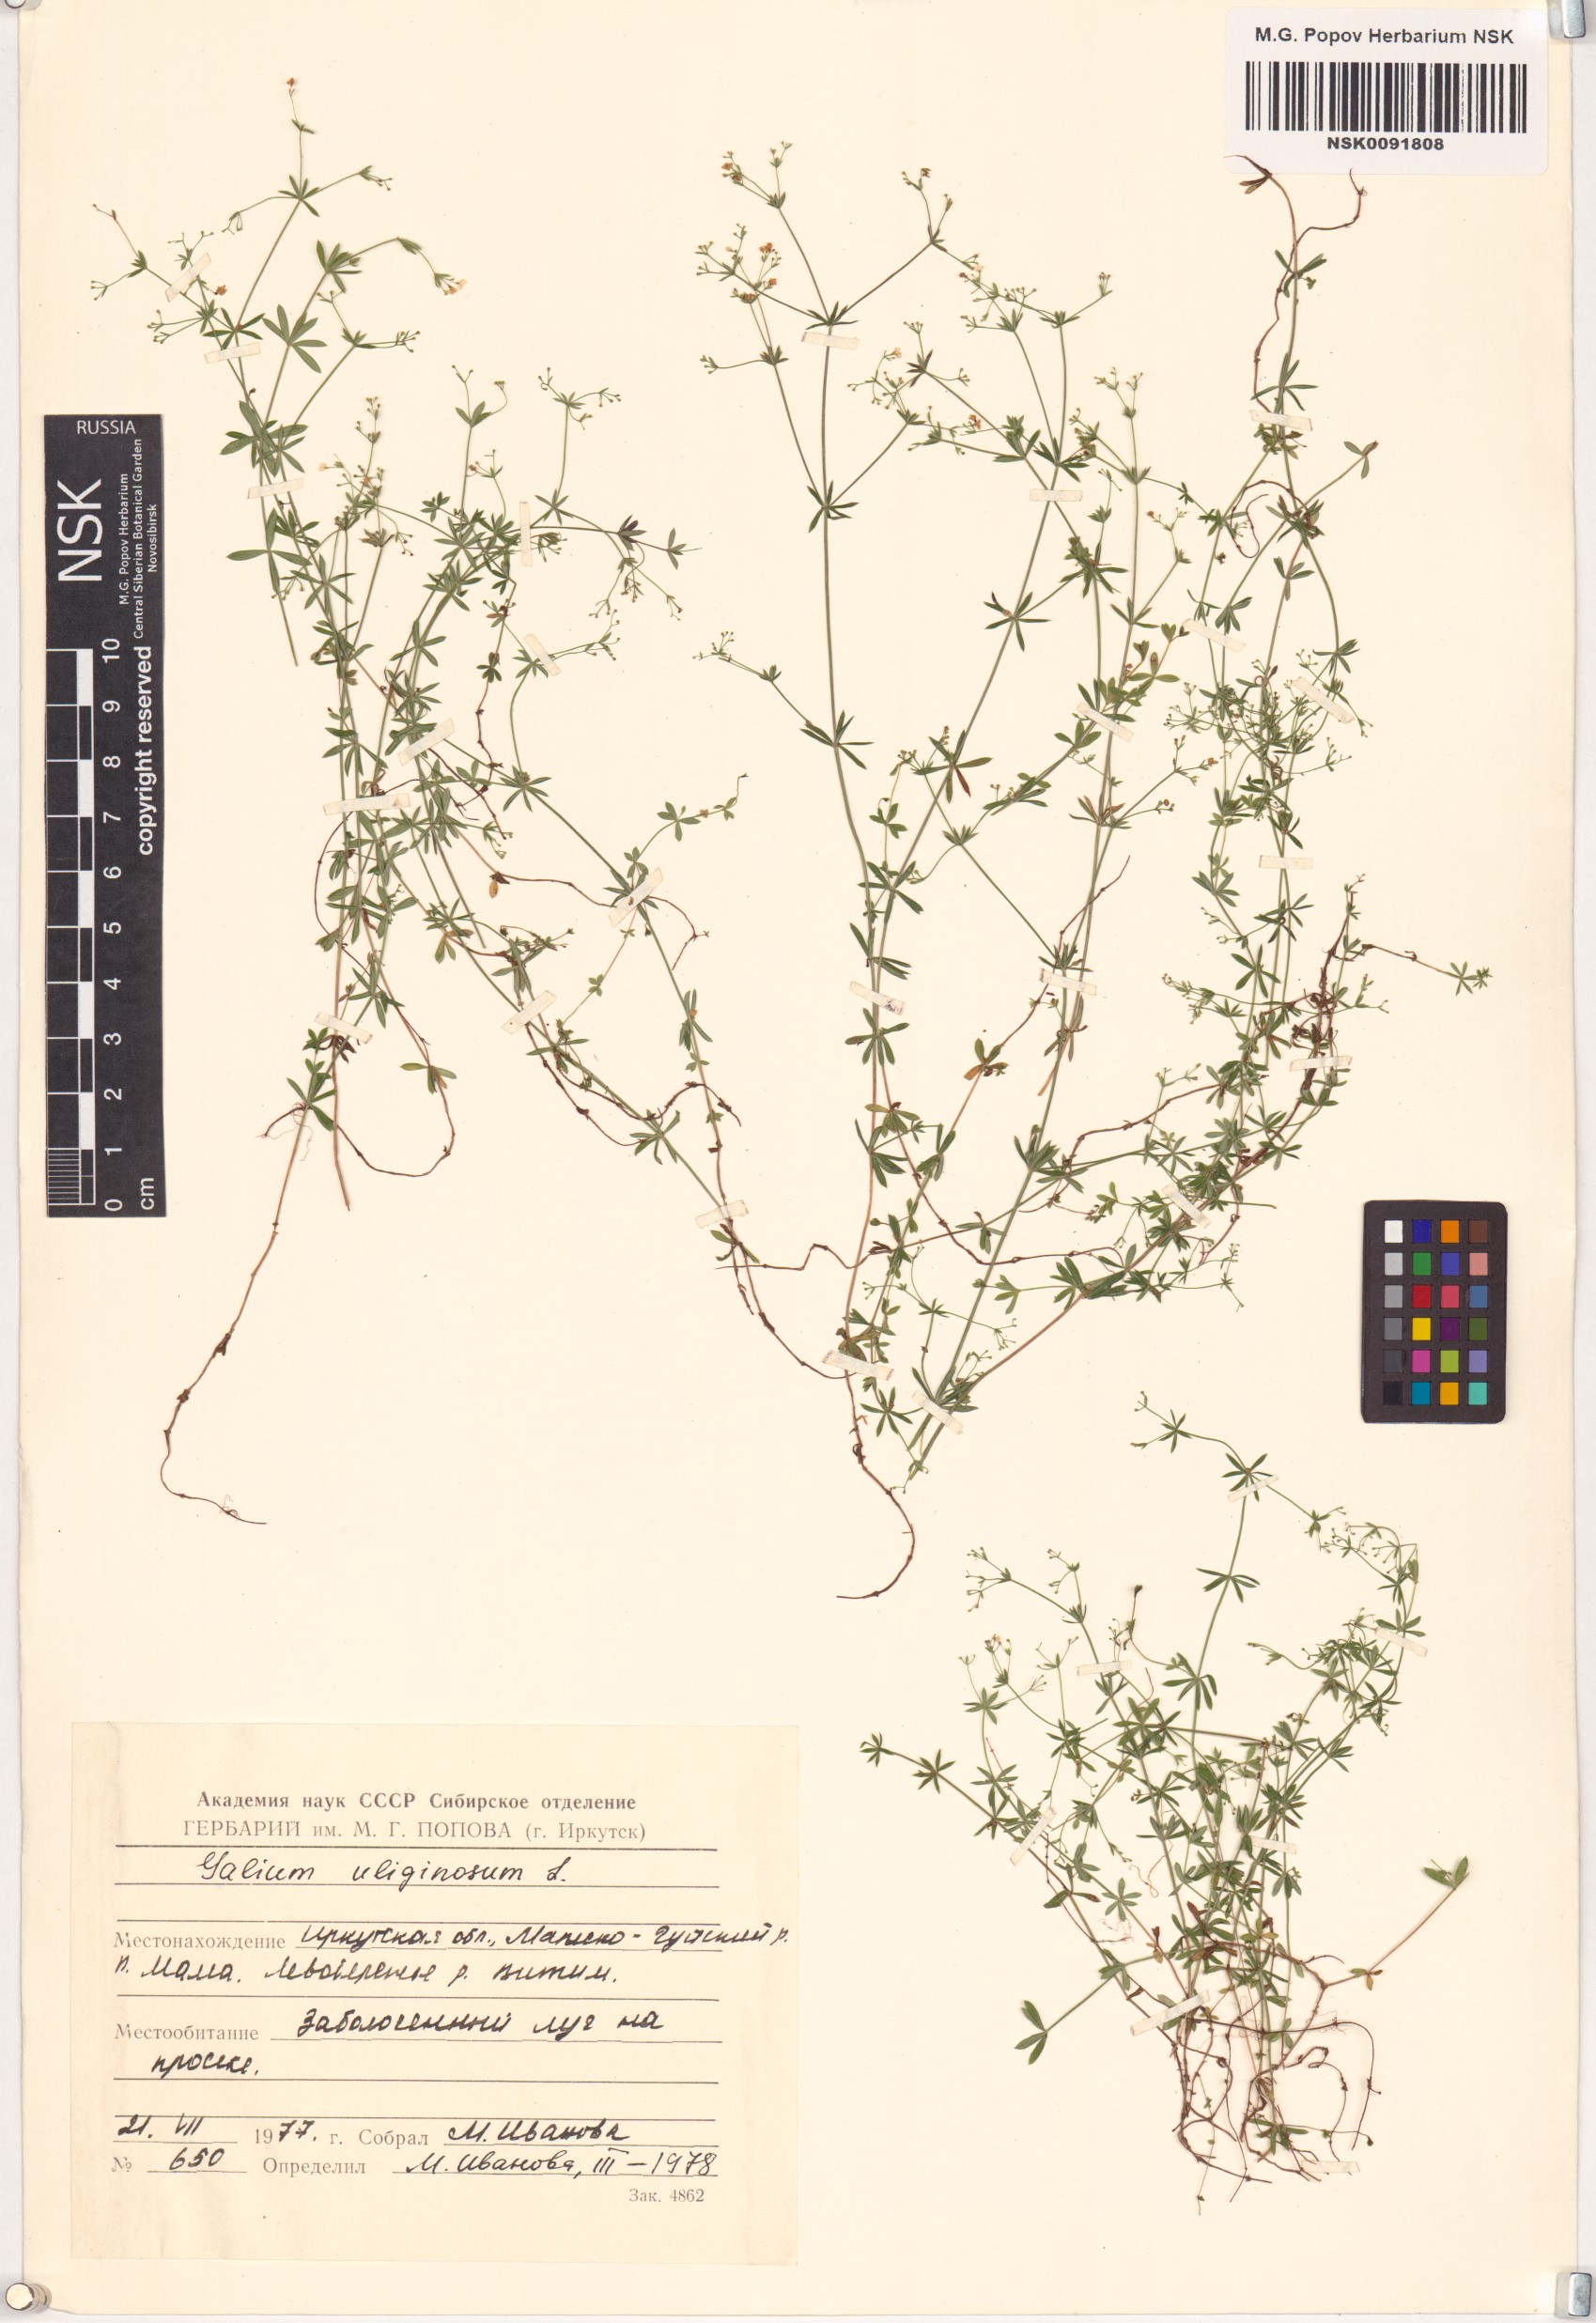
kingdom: Plantae
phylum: Tracheophyta
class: Magnoliopsida
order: Gentianales
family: Rubiaceae
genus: Galium
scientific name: Galium uliginosum
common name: Fen bedstraw
